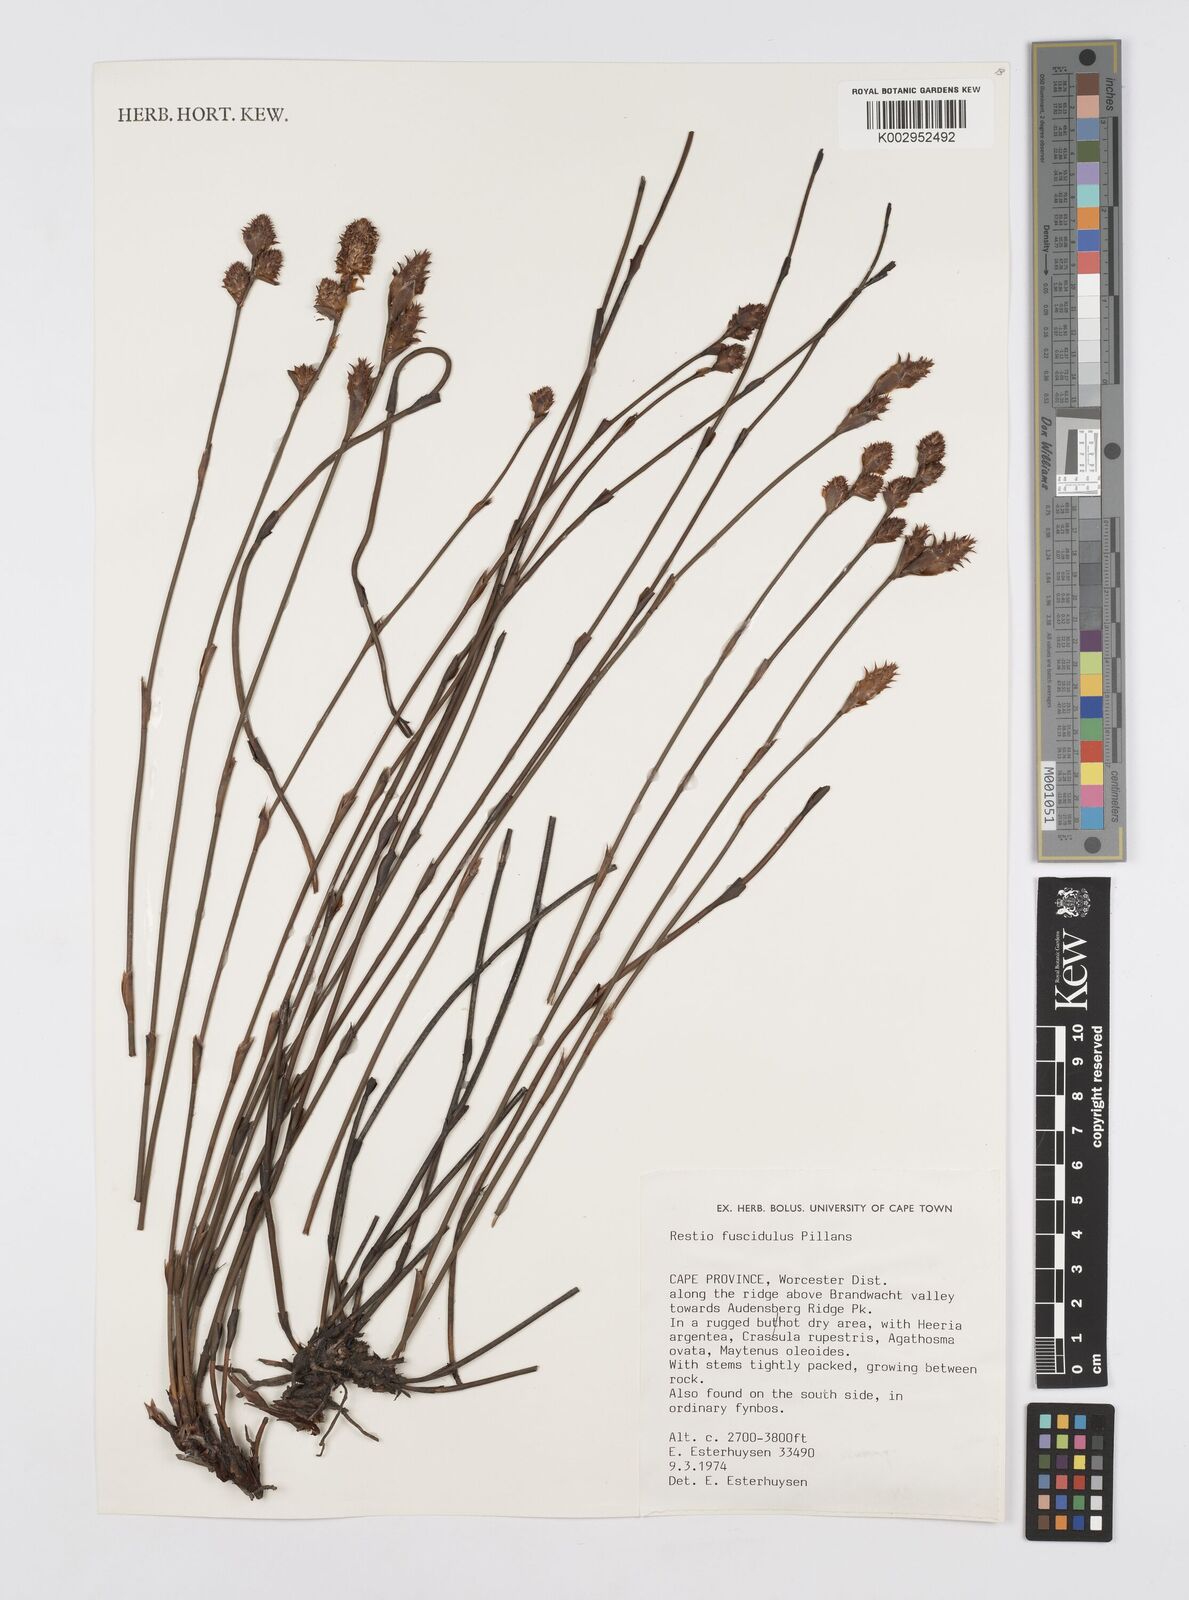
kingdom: Plantae
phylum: Tracheophyta
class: Liliopsida
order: Poales
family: Restionaceae
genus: Restio
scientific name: Restio fuscidulus
